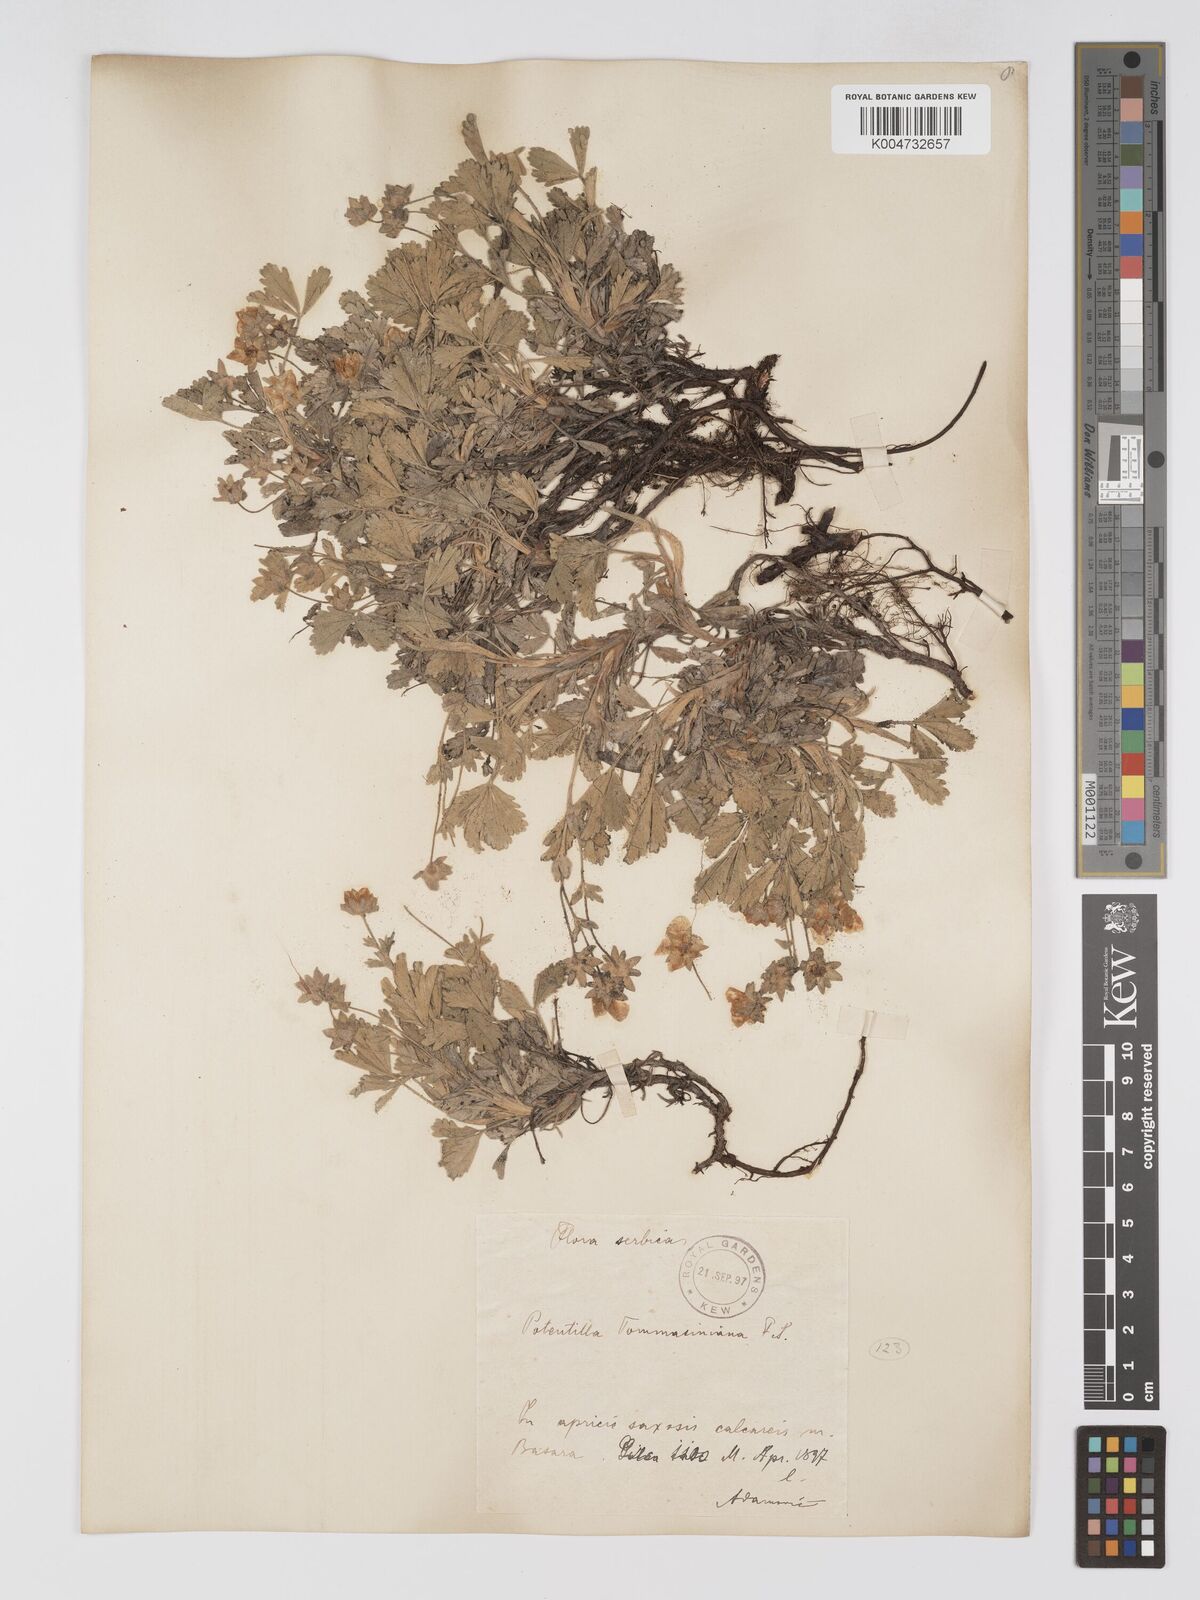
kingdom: Plantae
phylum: Tracheophyta
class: Magnoliopsida
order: Rosales
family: Rosaceae
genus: Potentilla
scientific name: Potentilla cinerea
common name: Ashy cinquefoil
